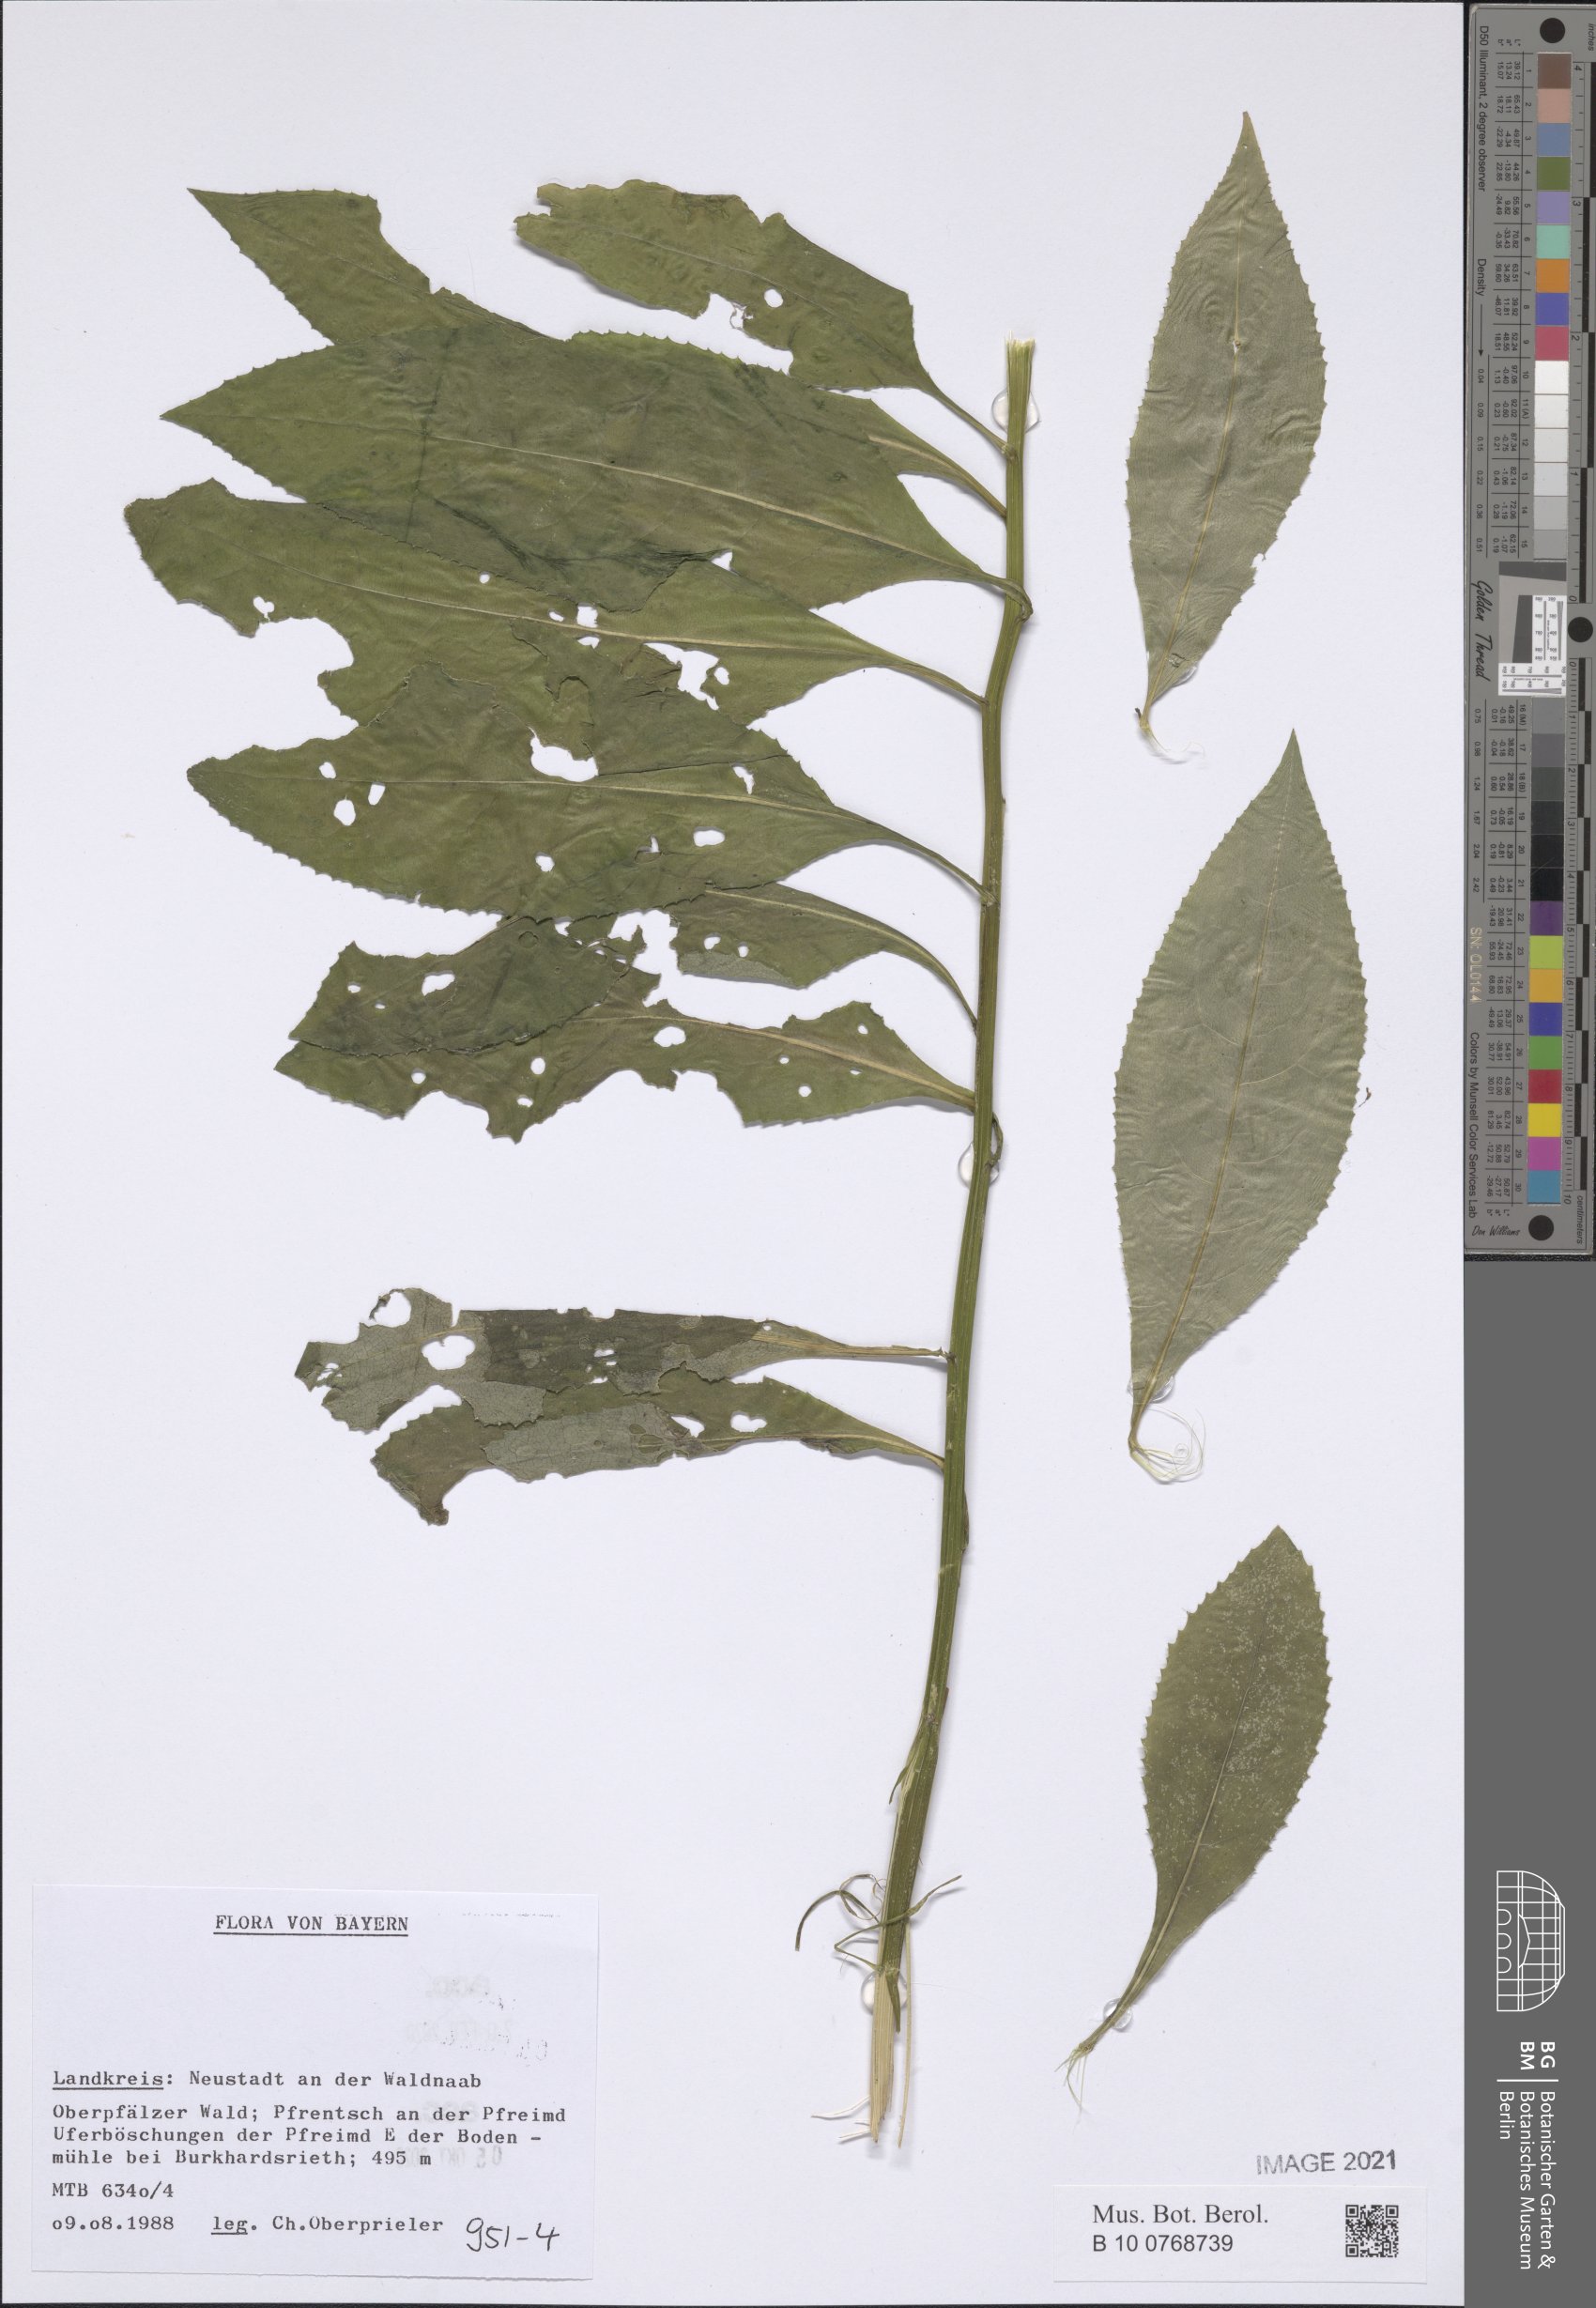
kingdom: Plantae
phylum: Tracheophyta
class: Magnoliopsida
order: Asterales
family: Asteraceae
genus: Senecio
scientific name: Senecio
